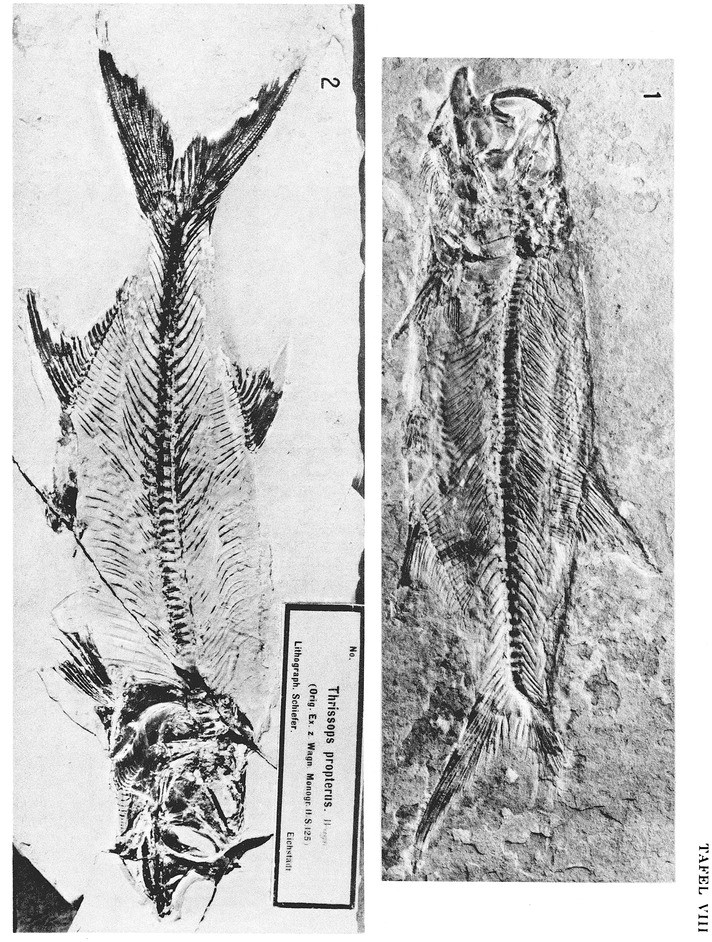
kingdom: Animalia
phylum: Chordata
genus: Pachythrissops
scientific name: Pachythrissops propterus
